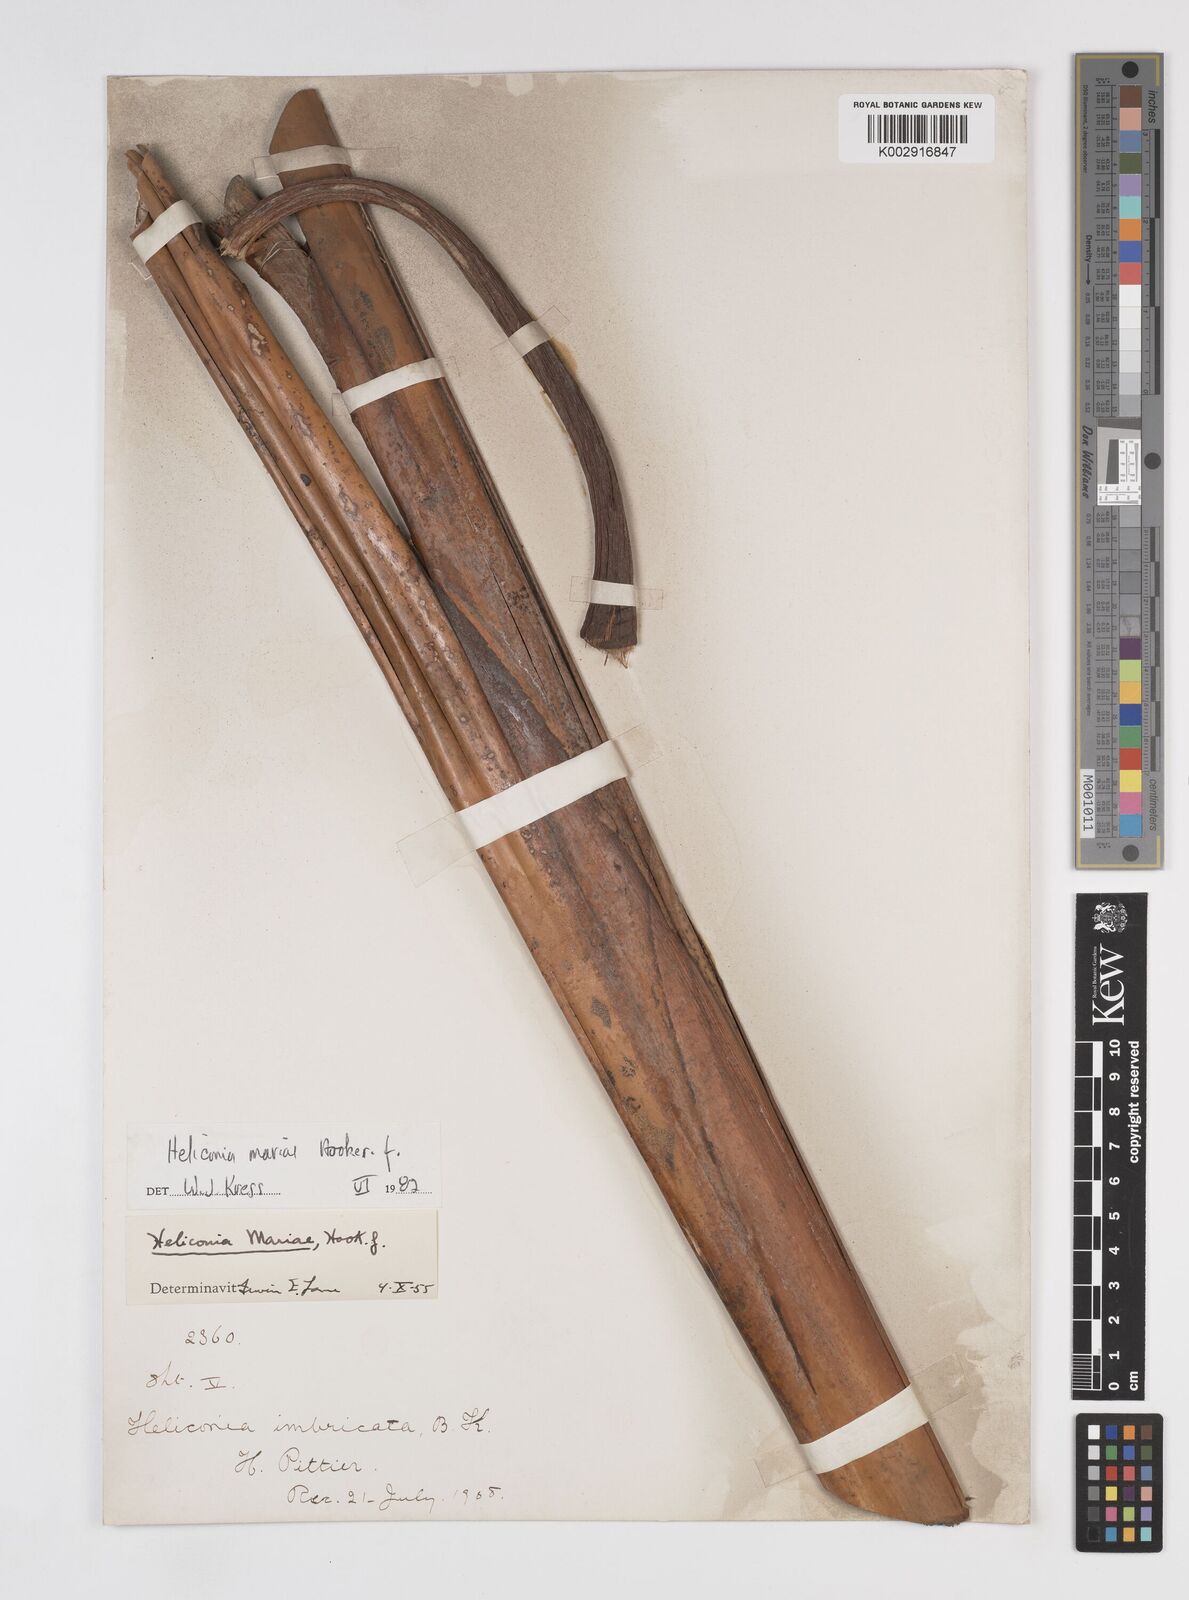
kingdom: Plantae
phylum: Tracheophyta
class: Liliopsida
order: Zingiberales
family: Heliconiaceae
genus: Heliconia
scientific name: Heliconia
